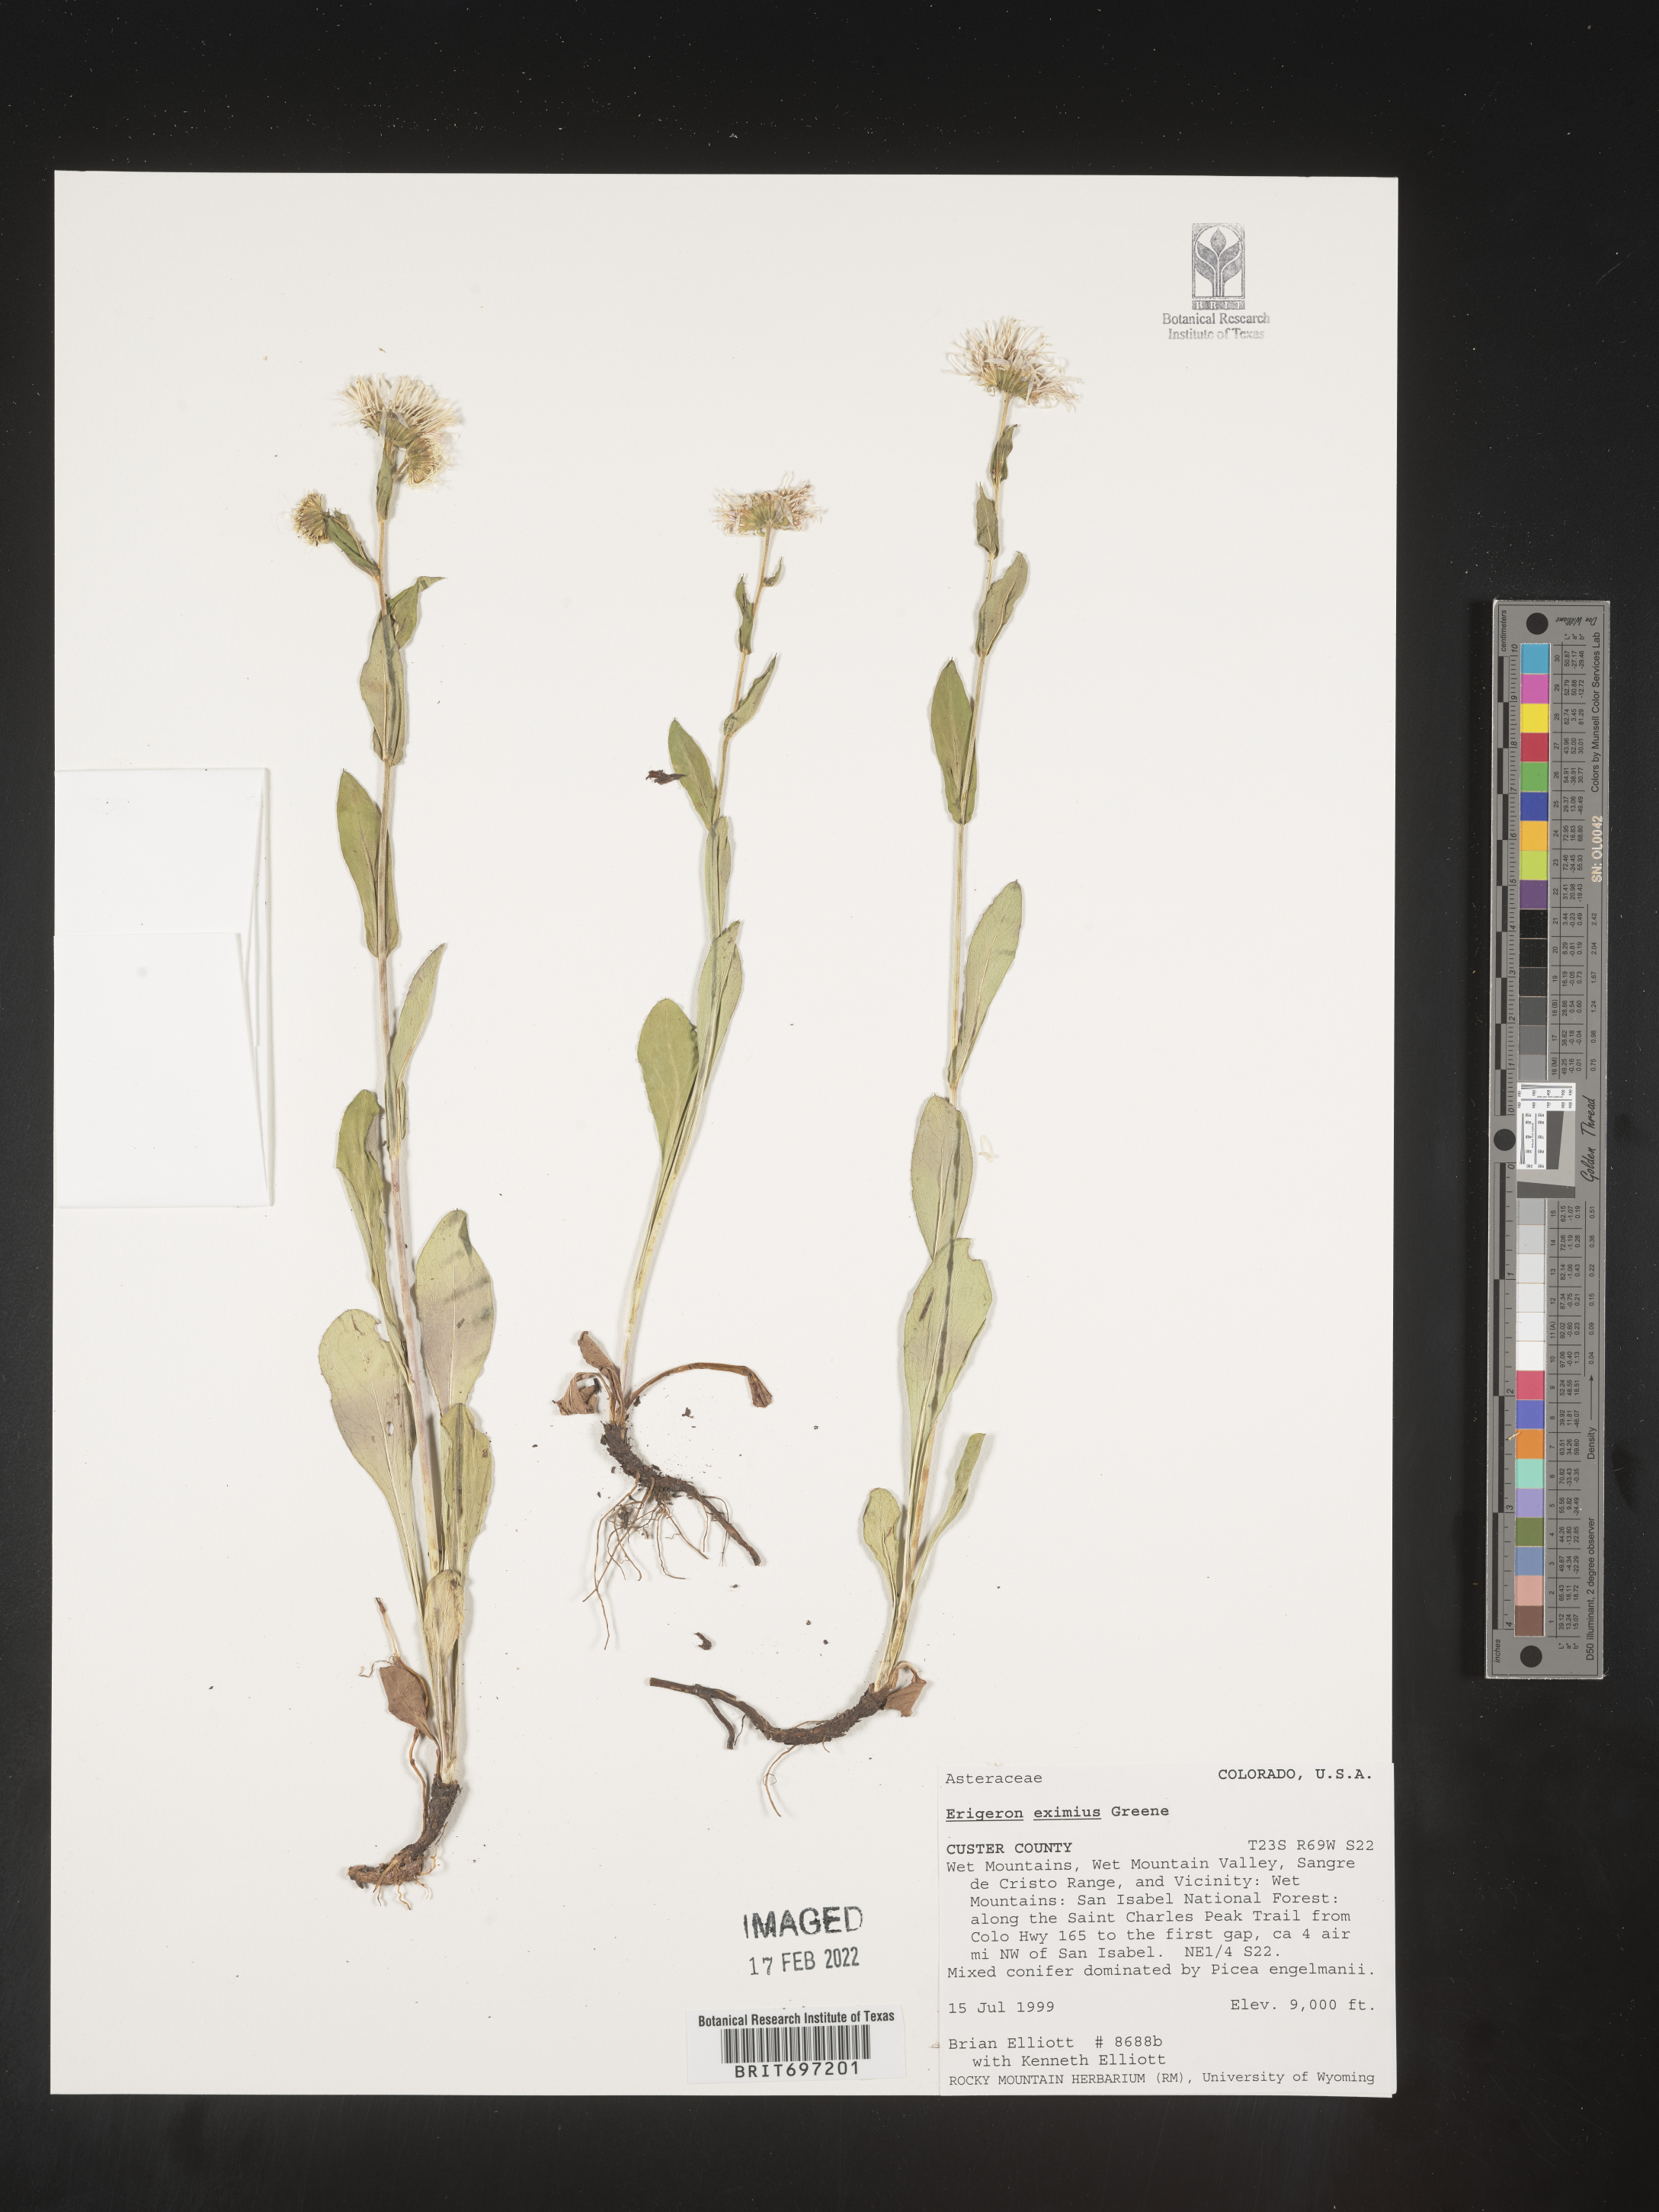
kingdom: Plantae
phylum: Tracheophyta
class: Magnoliopsida
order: Asterales
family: Asteraceae
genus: Erigeron
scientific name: Erigeron eximius
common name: Spruce-fir fleabane
